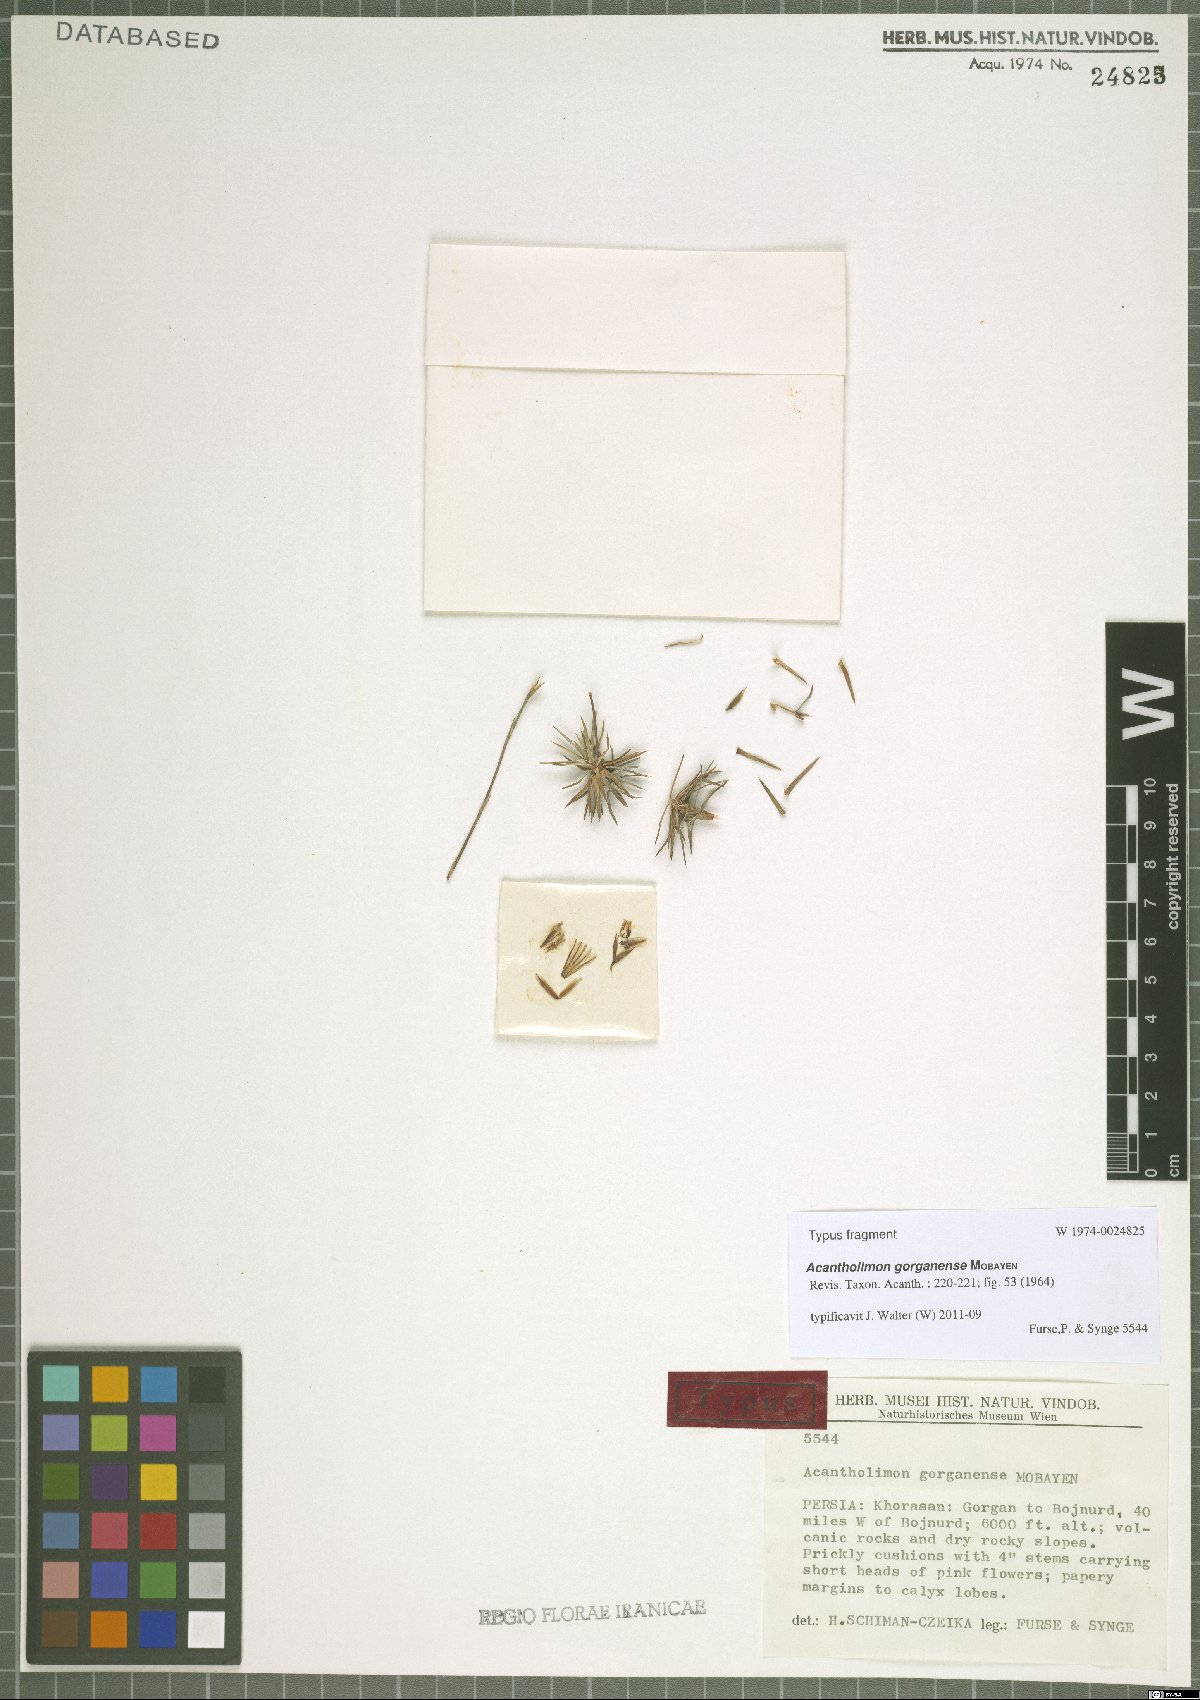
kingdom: Plantae
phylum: Tracheophyta
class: Magnoliopsida
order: Caryophyllales
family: Plumbaginaceae
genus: Acantholimon
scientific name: Acantholimon gorganense
